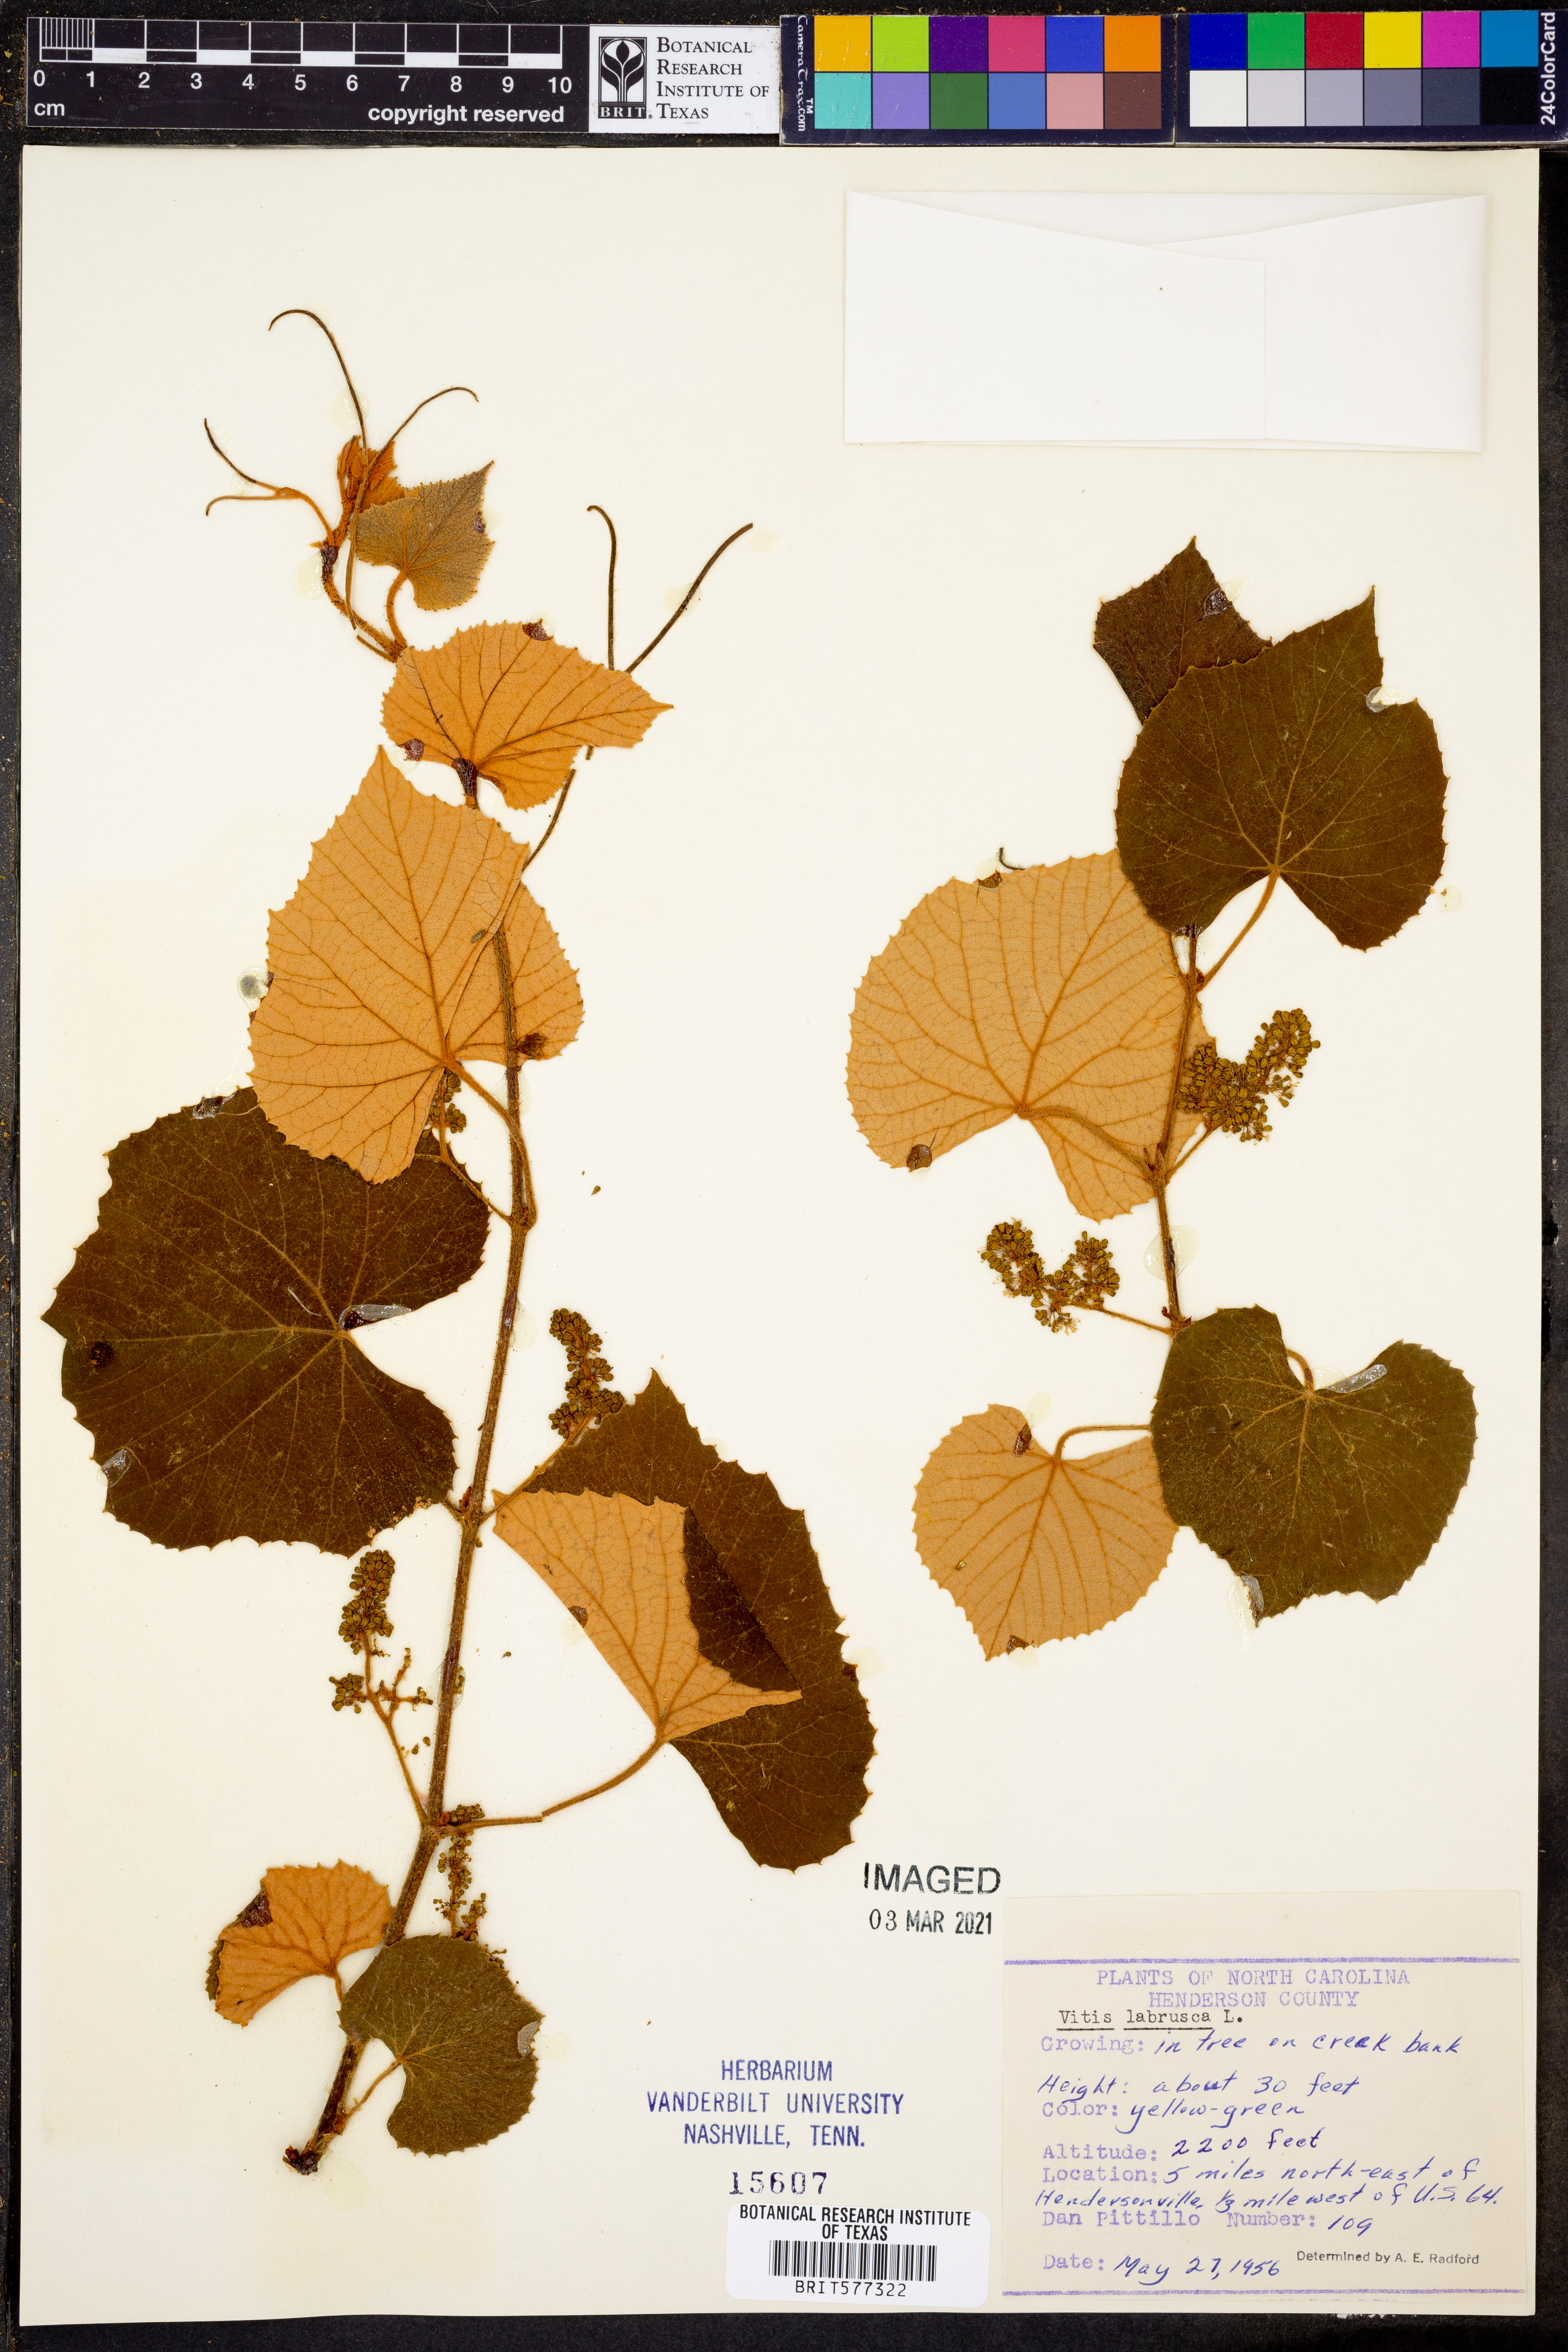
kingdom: Plantae
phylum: Tracheophyta
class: Magnoliopsida
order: Vitales
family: Vitaceae
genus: Vitis
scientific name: Vitis labrusca
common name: Concord grape
